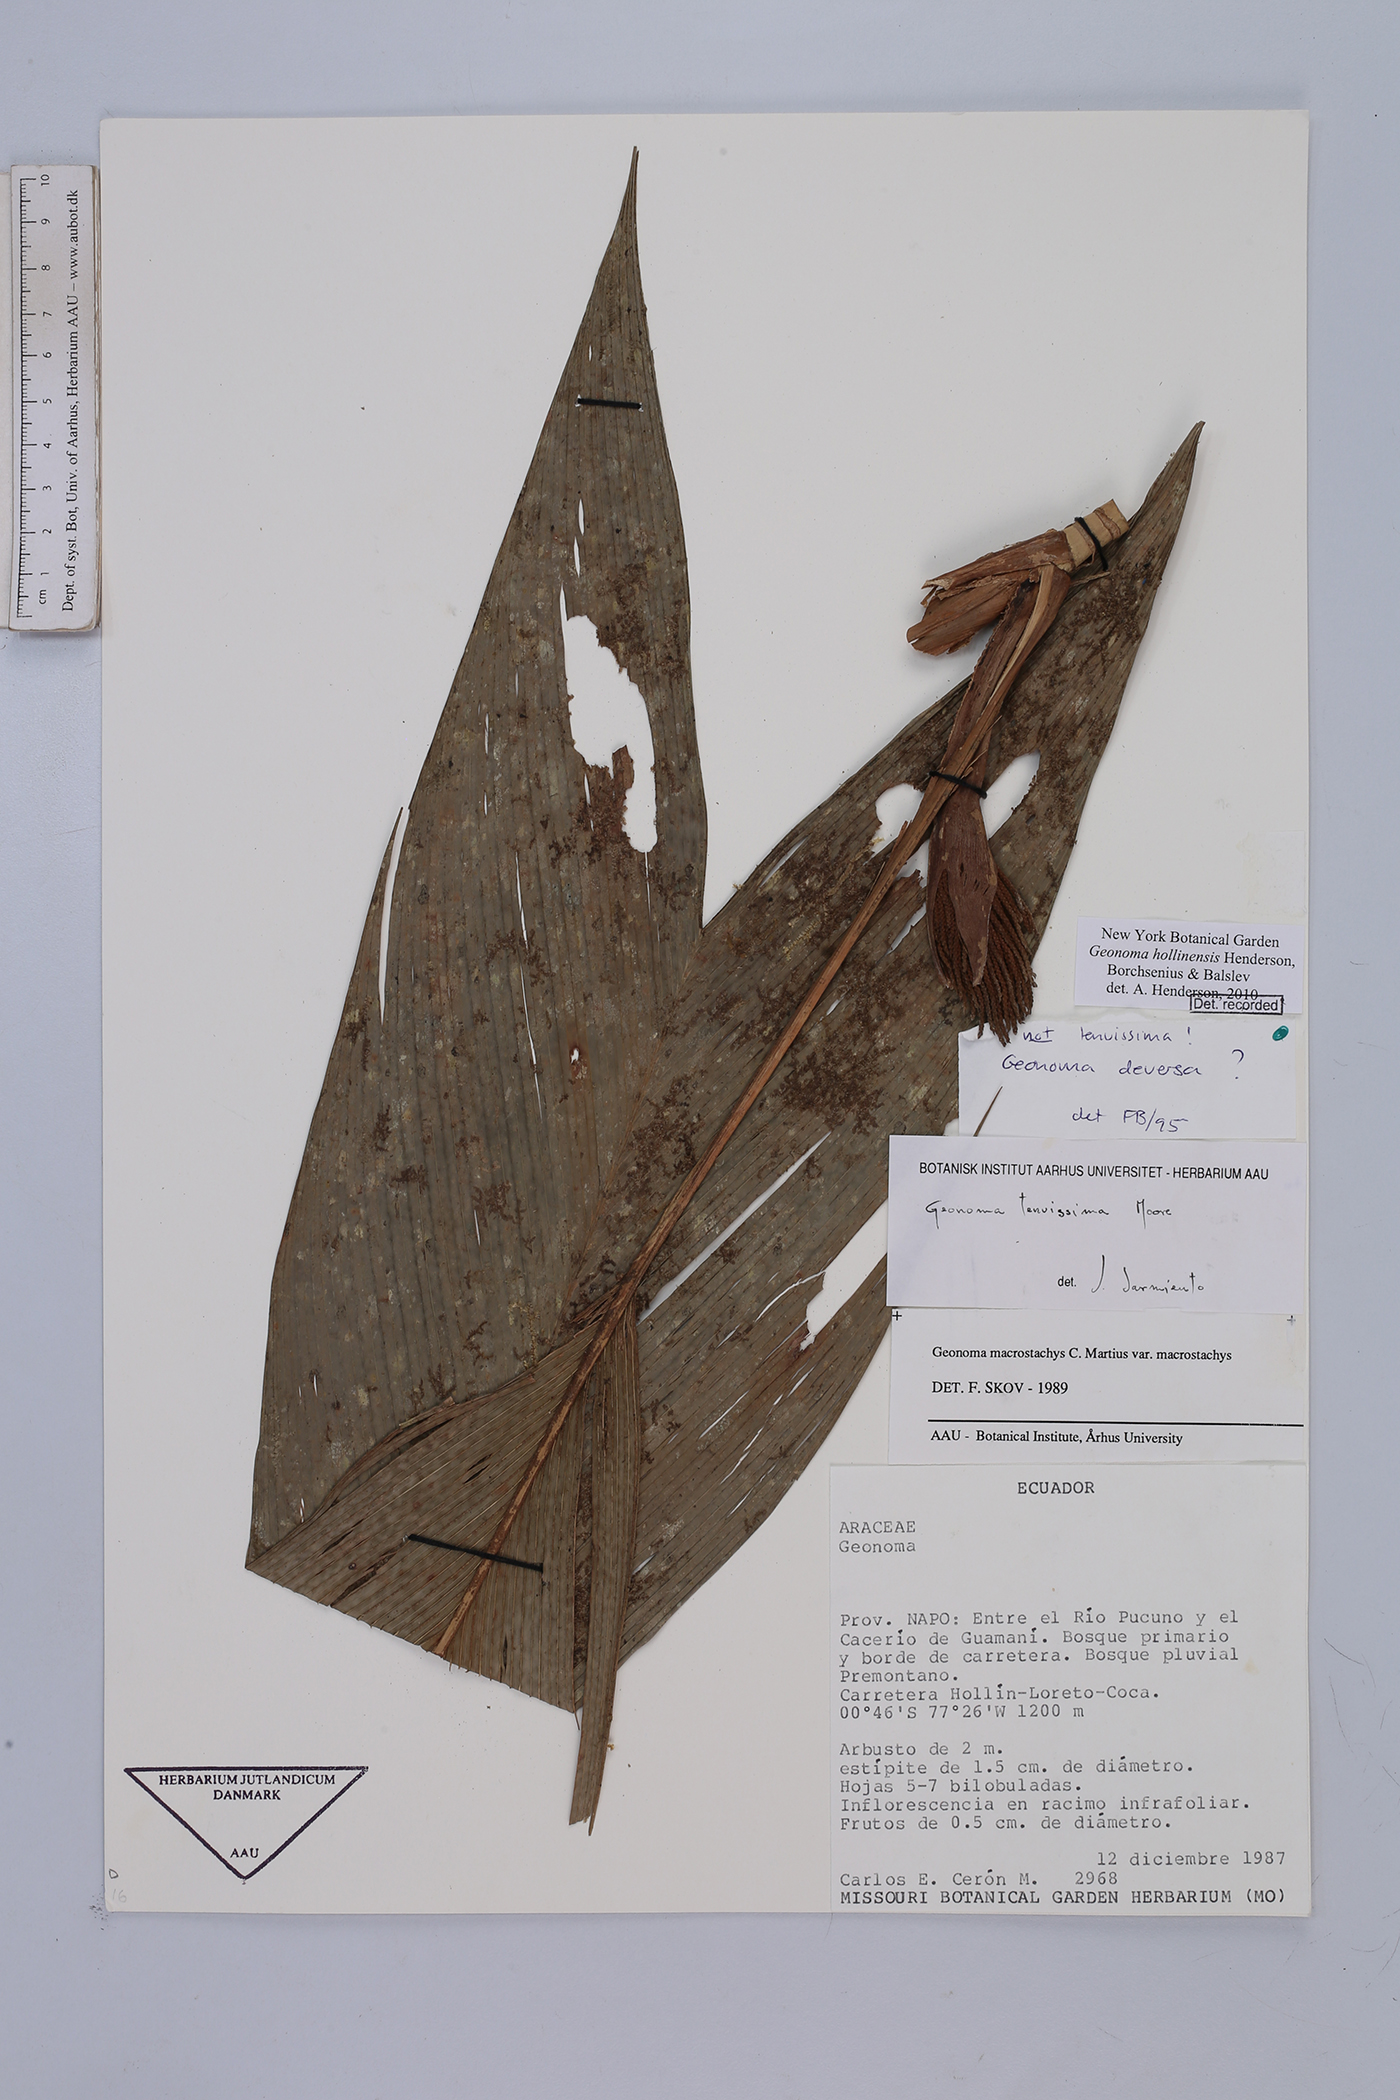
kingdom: Plantae
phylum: Tracheophyta
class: Liliopsida
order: Arecales
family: Arecaceae
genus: Geonoma
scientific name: Geonoma hollinensis
